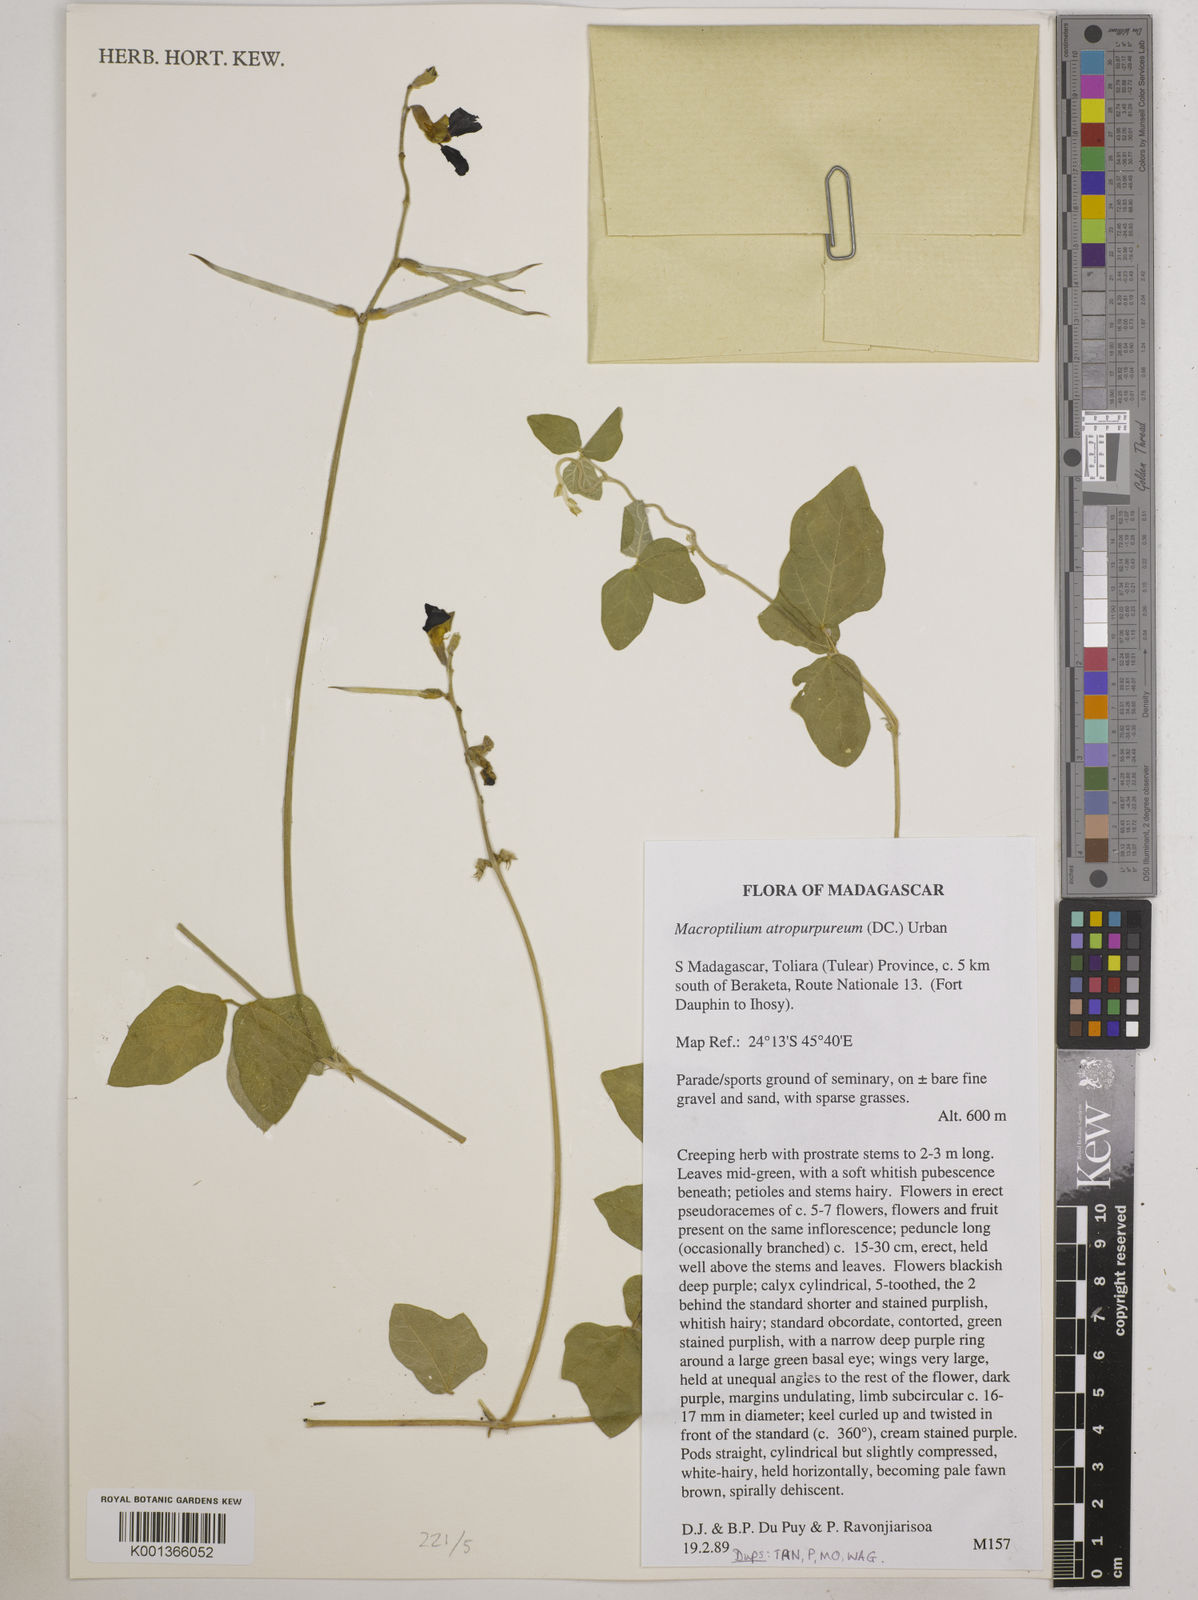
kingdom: Plantae
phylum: Tracheophyta
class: Magnoliopsida
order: Fabales
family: Fabaceae
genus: Macroptilium
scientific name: Macroptilium atropurpureum
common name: Purple bushbean
